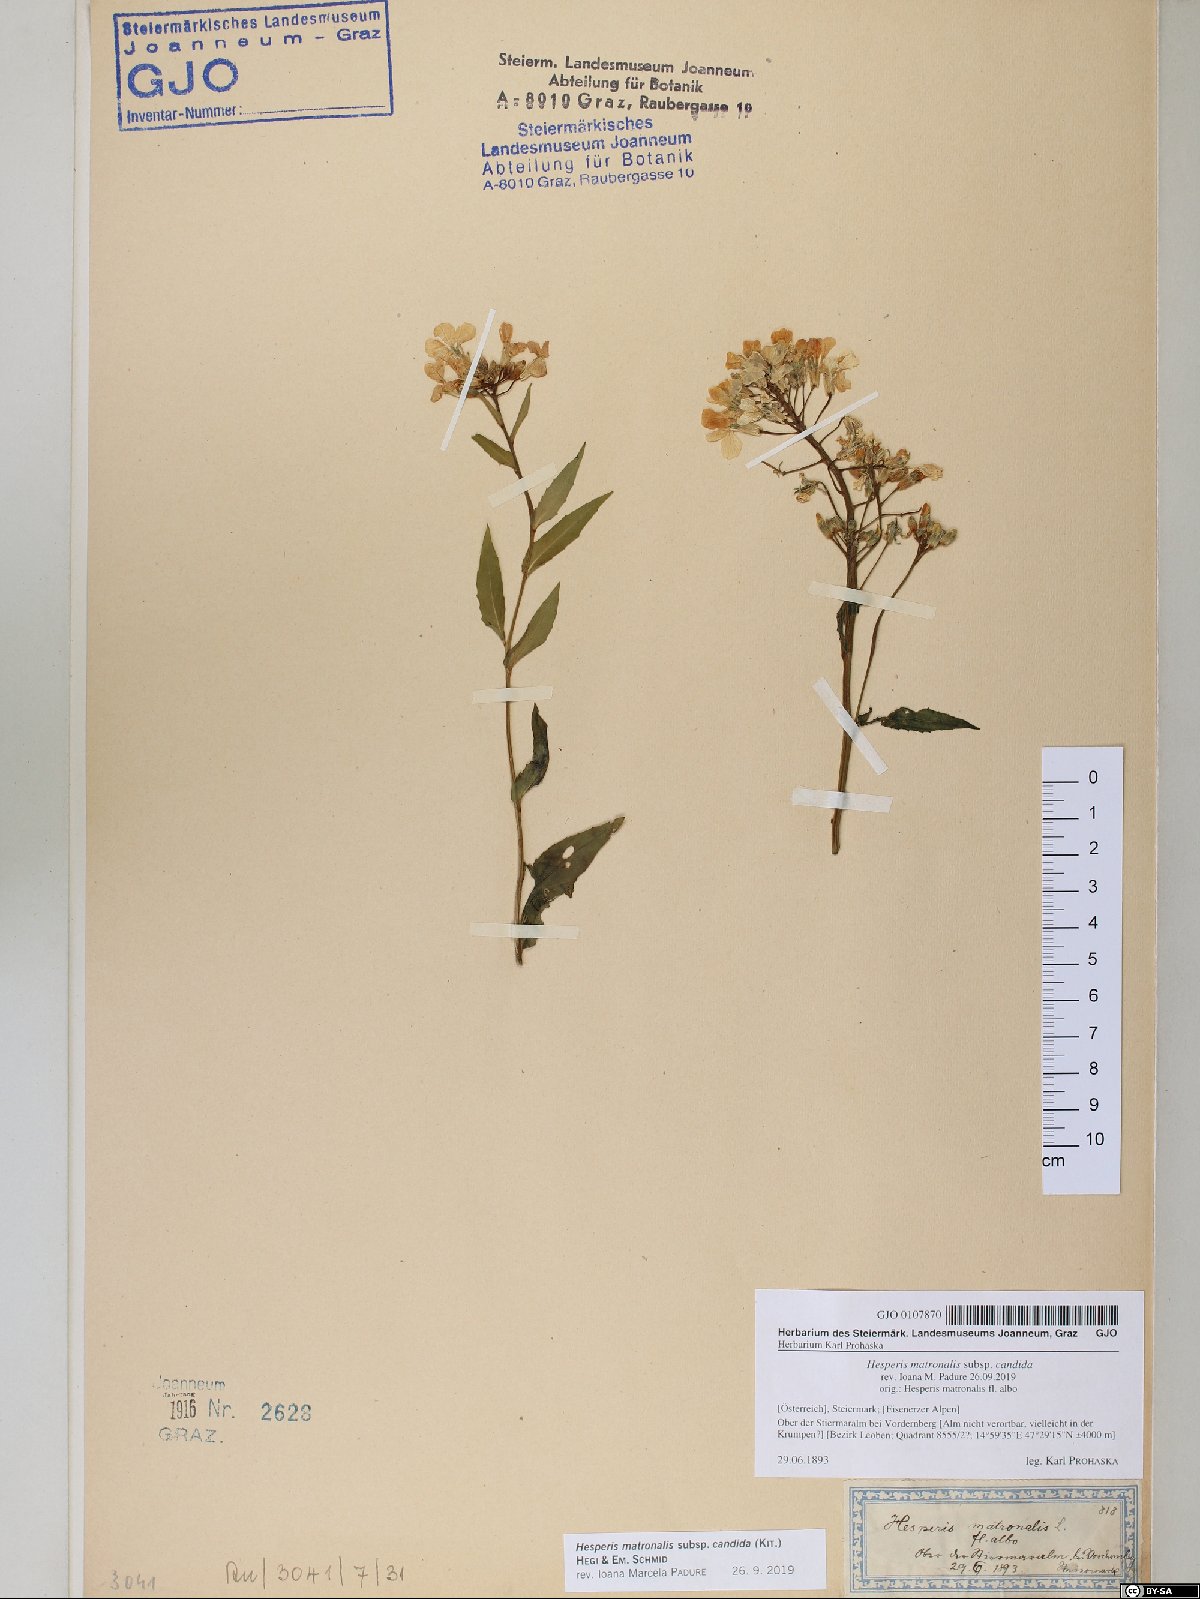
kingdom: Plantae
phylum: Tracheophyta
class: Magnoliopsida
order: Brassicales
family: Brassicaceae
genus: Hesperis
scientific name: Hesperis matronalis
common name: Dame's-violet
